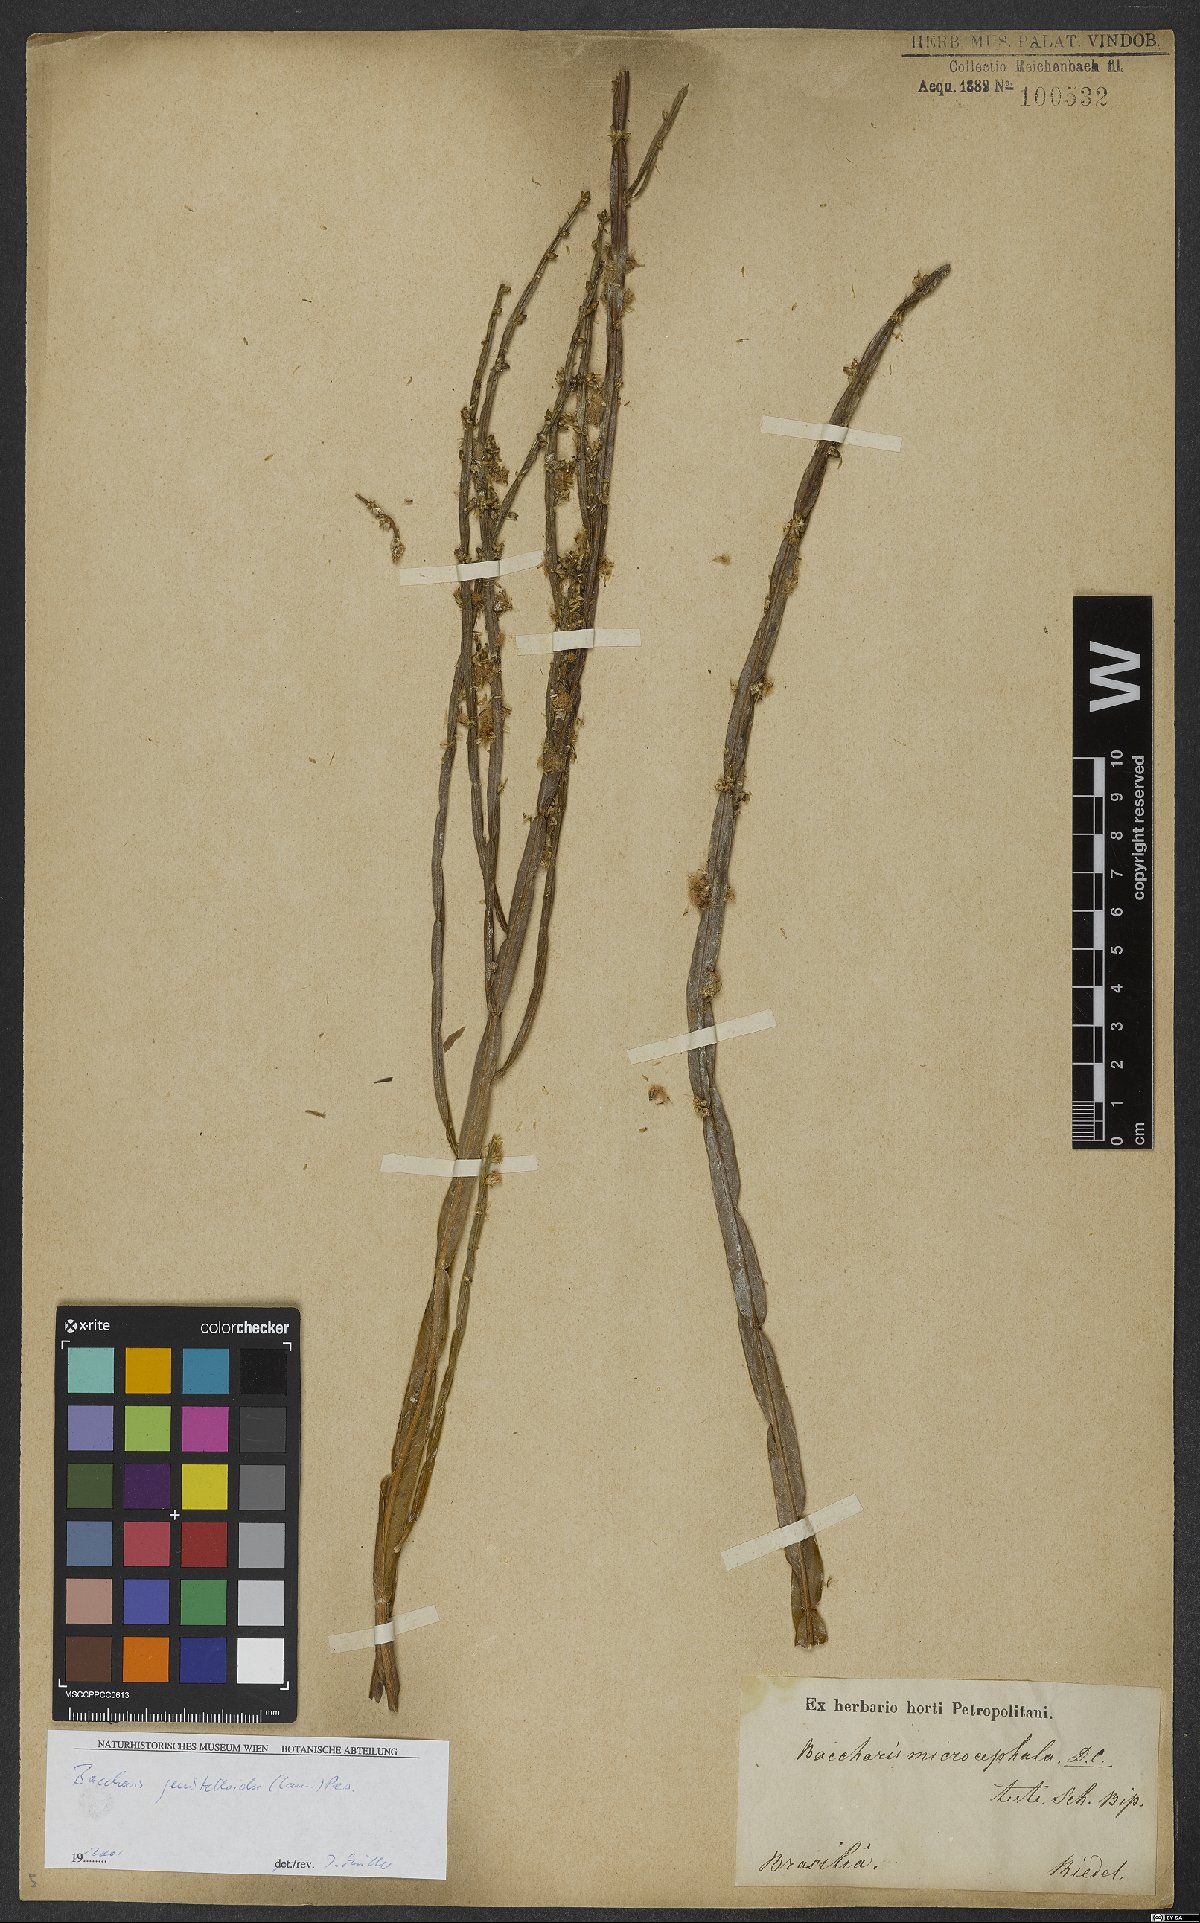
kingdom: Plantae
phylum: Tracheophyta
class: Magnoliopsida
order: Asterales
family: Asteraceae
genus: Baccharis
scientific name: Baccharis genistelloides
